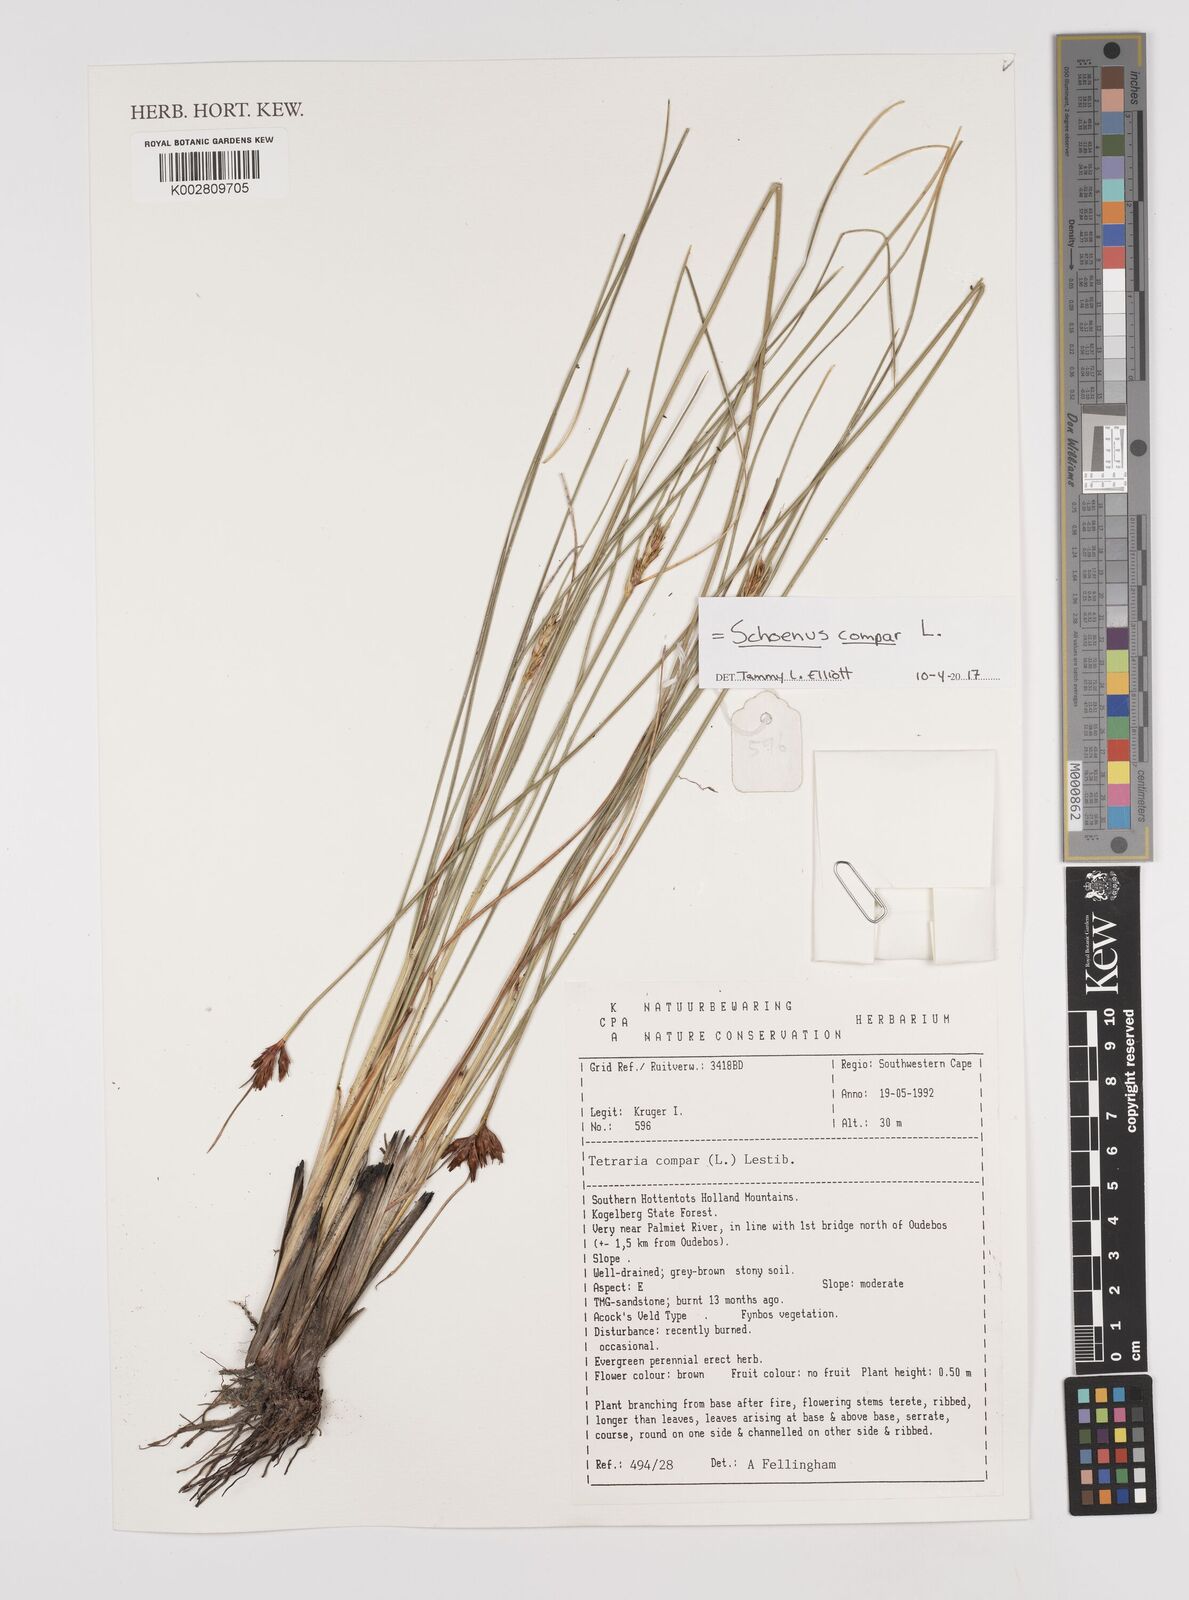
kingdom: Plantae
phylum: Tracheophyta
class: Liliopsida
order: Poales
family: Cyperaceae
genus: Schoenus
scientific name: Schoenus compar
